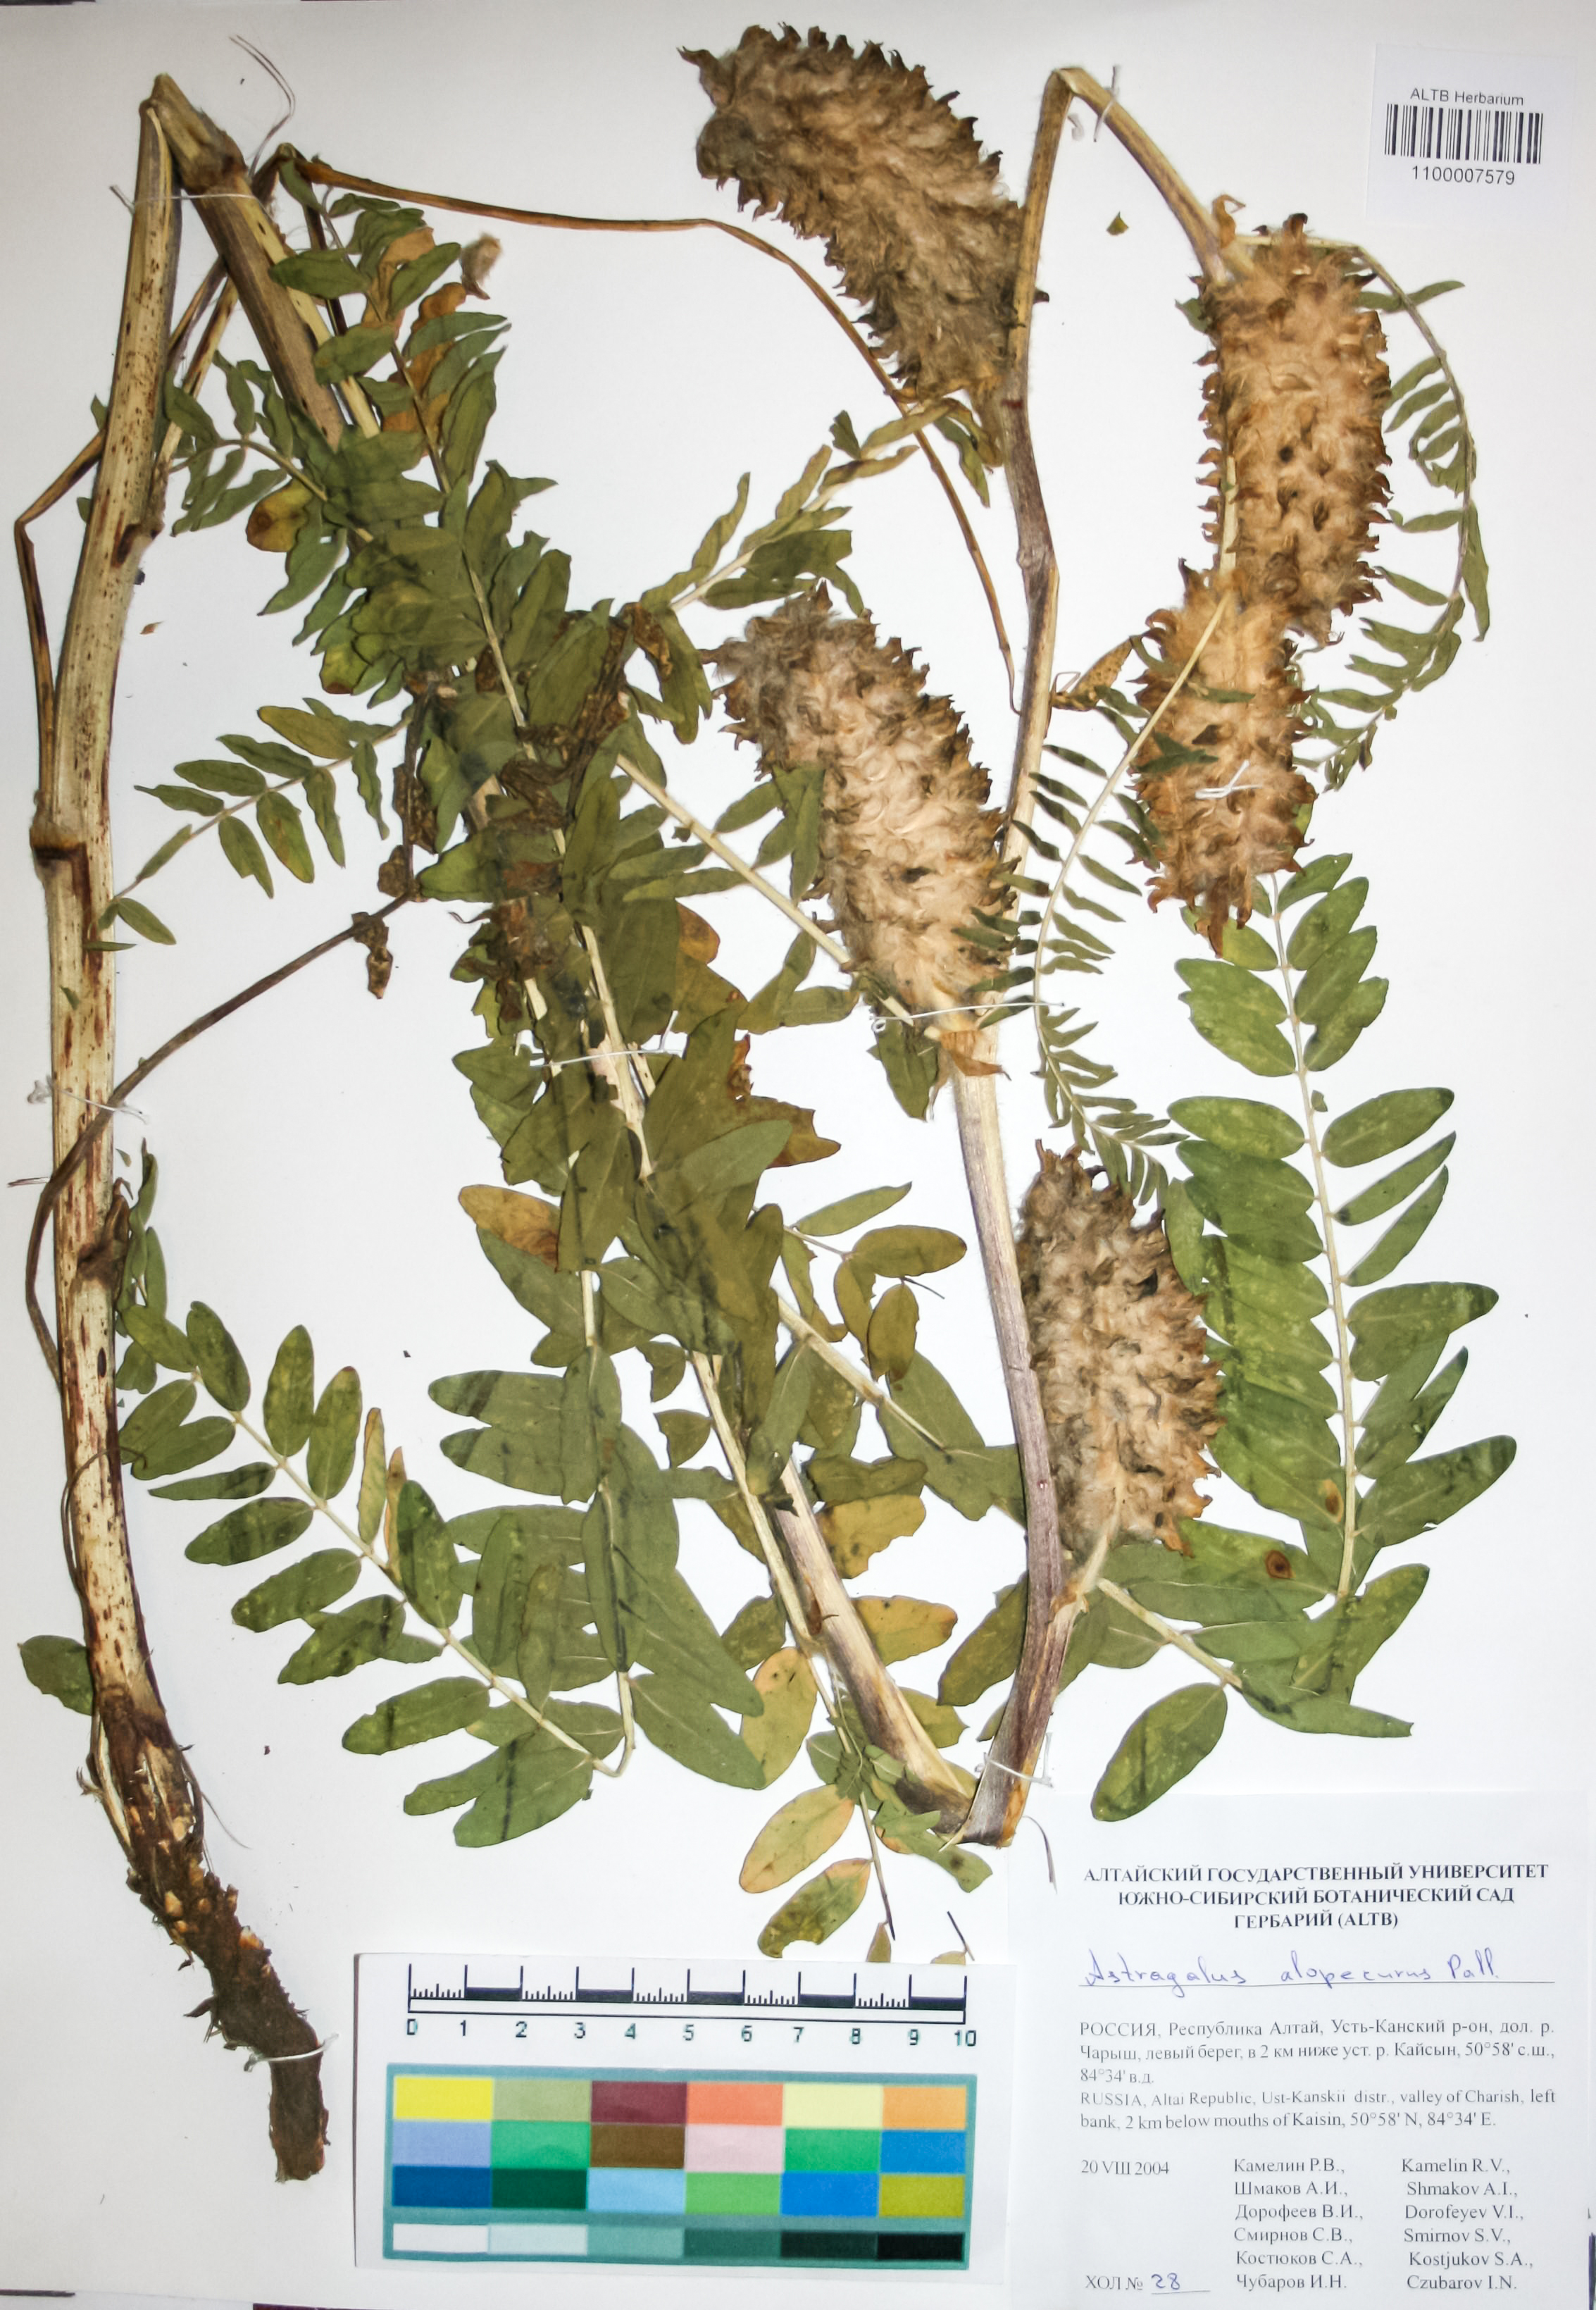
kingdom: Plantae
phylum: Tracheophyta
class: Magnoliopsida
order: Fabales
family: Fabaceae
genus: Astragalus
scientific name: Astragalus alopecurus
